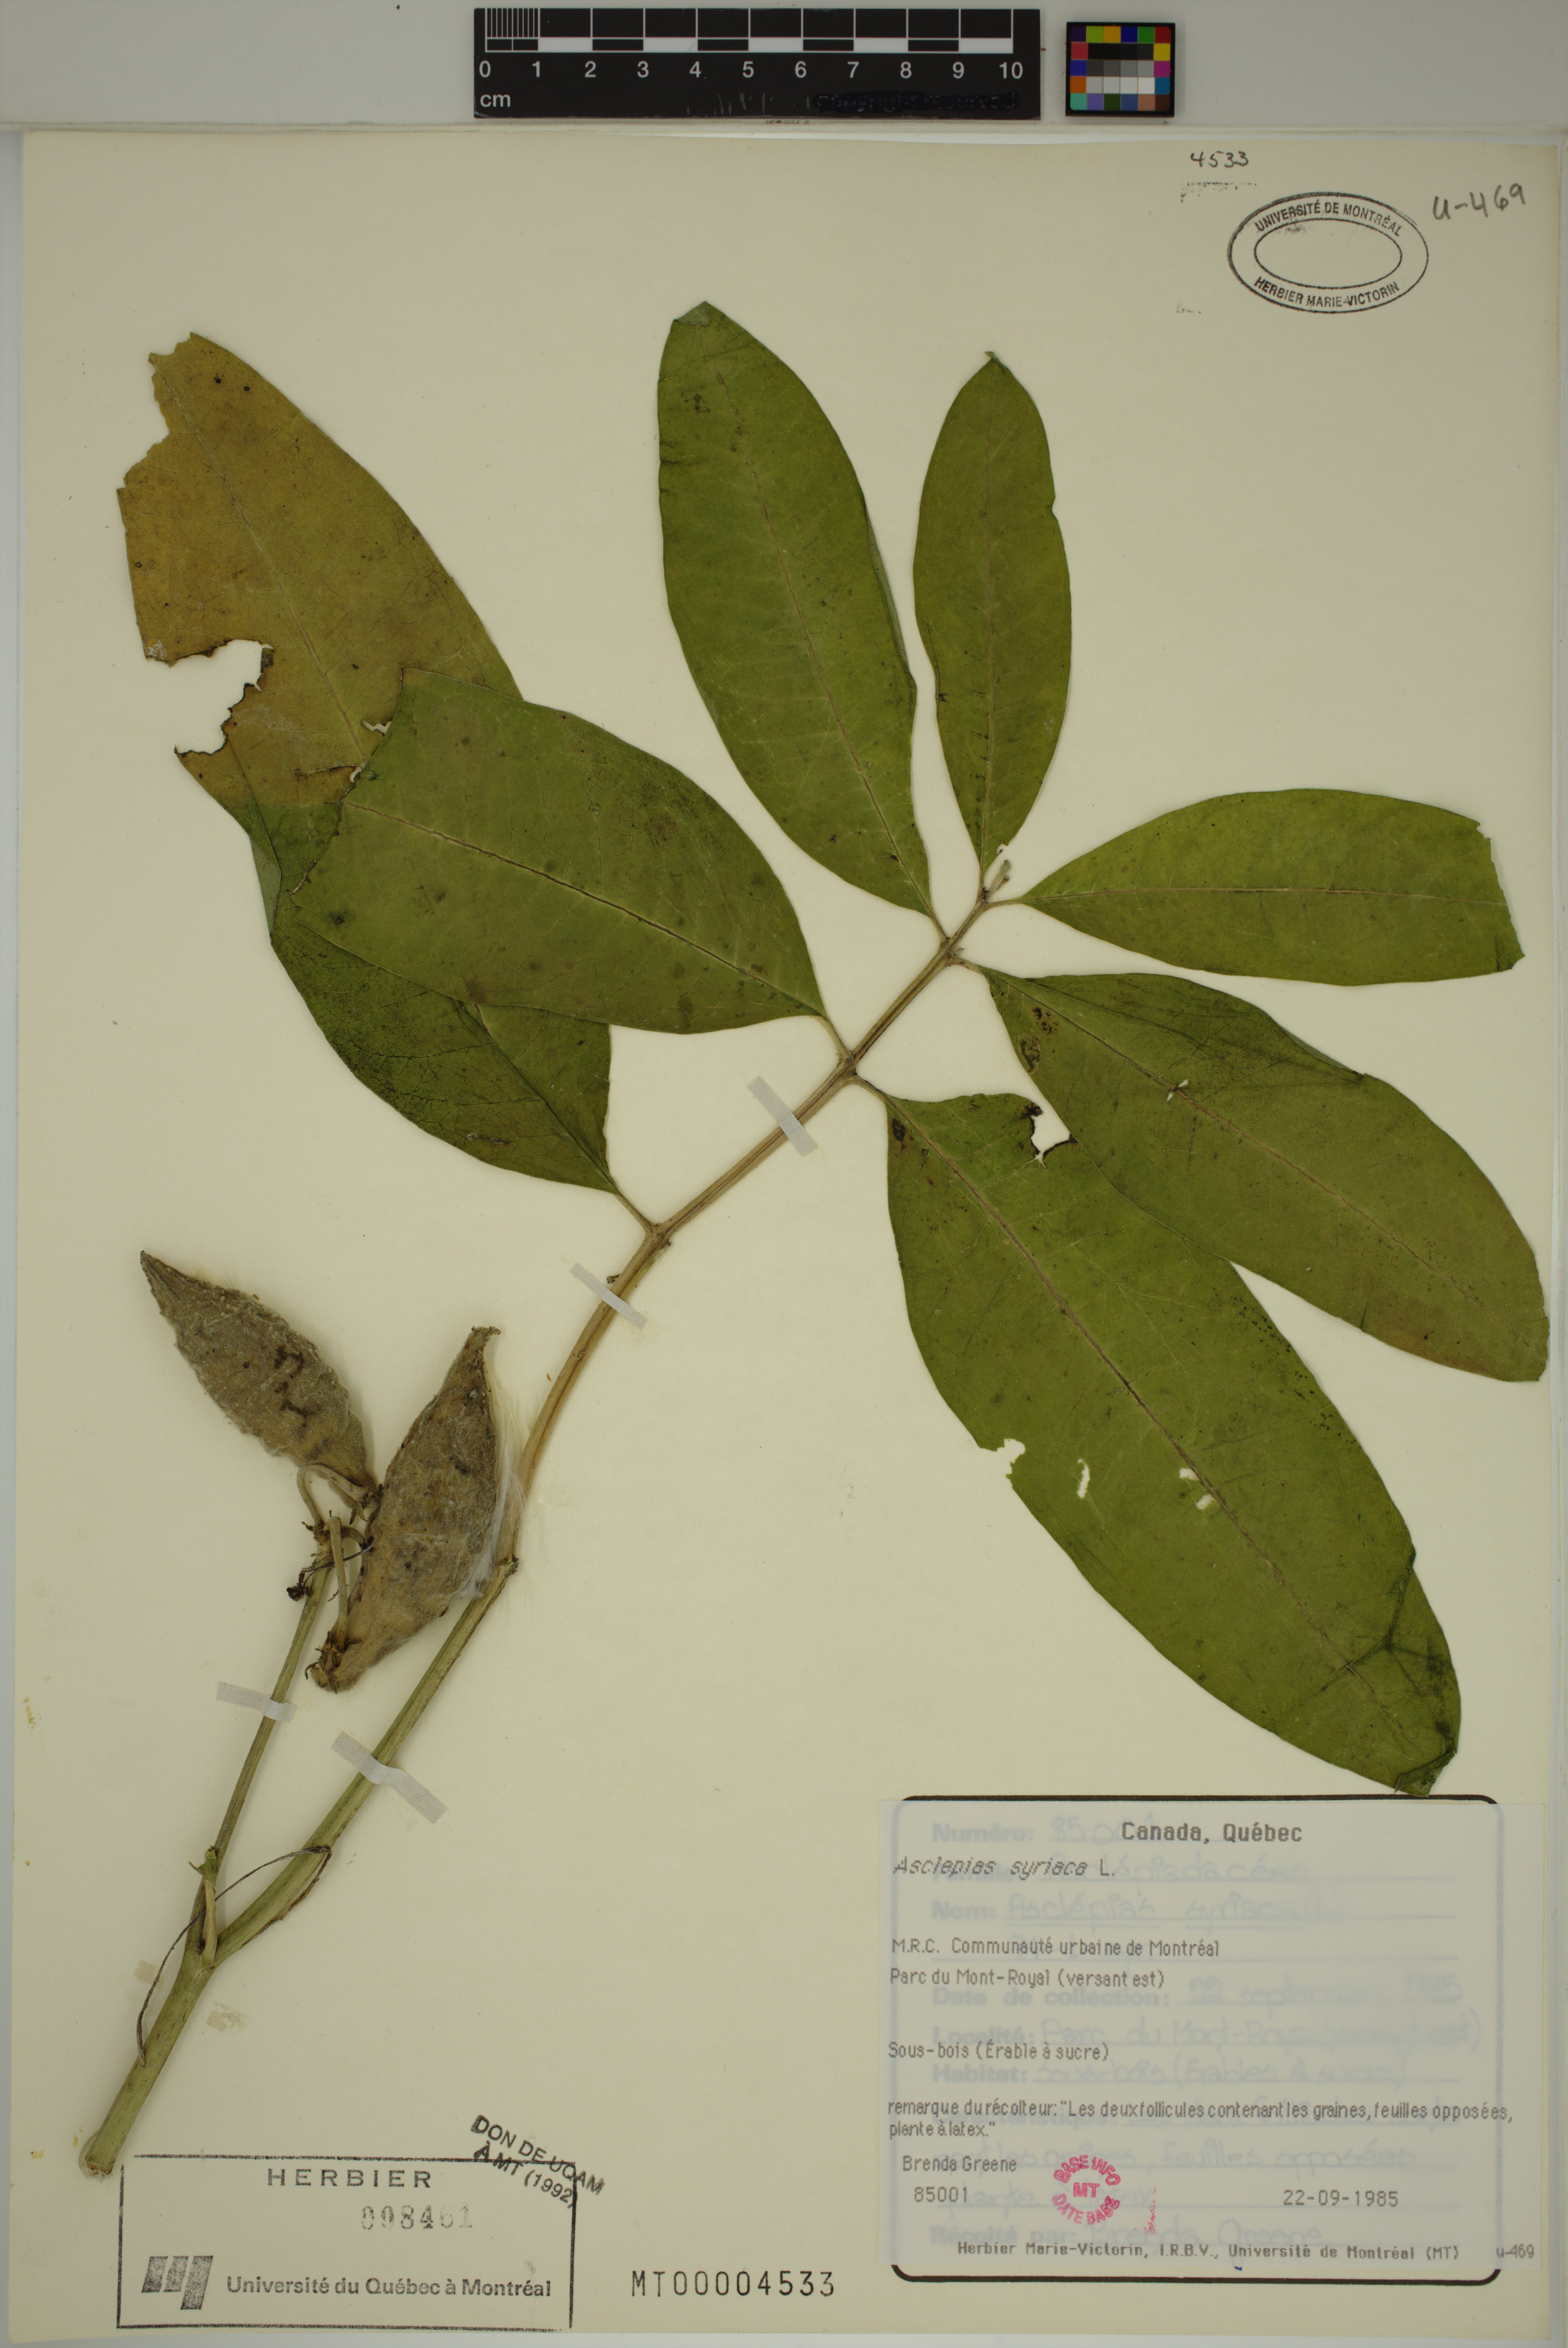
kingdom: Plantae
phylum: Tracheophyta
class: Magnoliopsida
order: Gentianales
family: Apocynaceae
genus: Asclepias
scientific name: Asclepias syriaca
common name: Common milkweed
